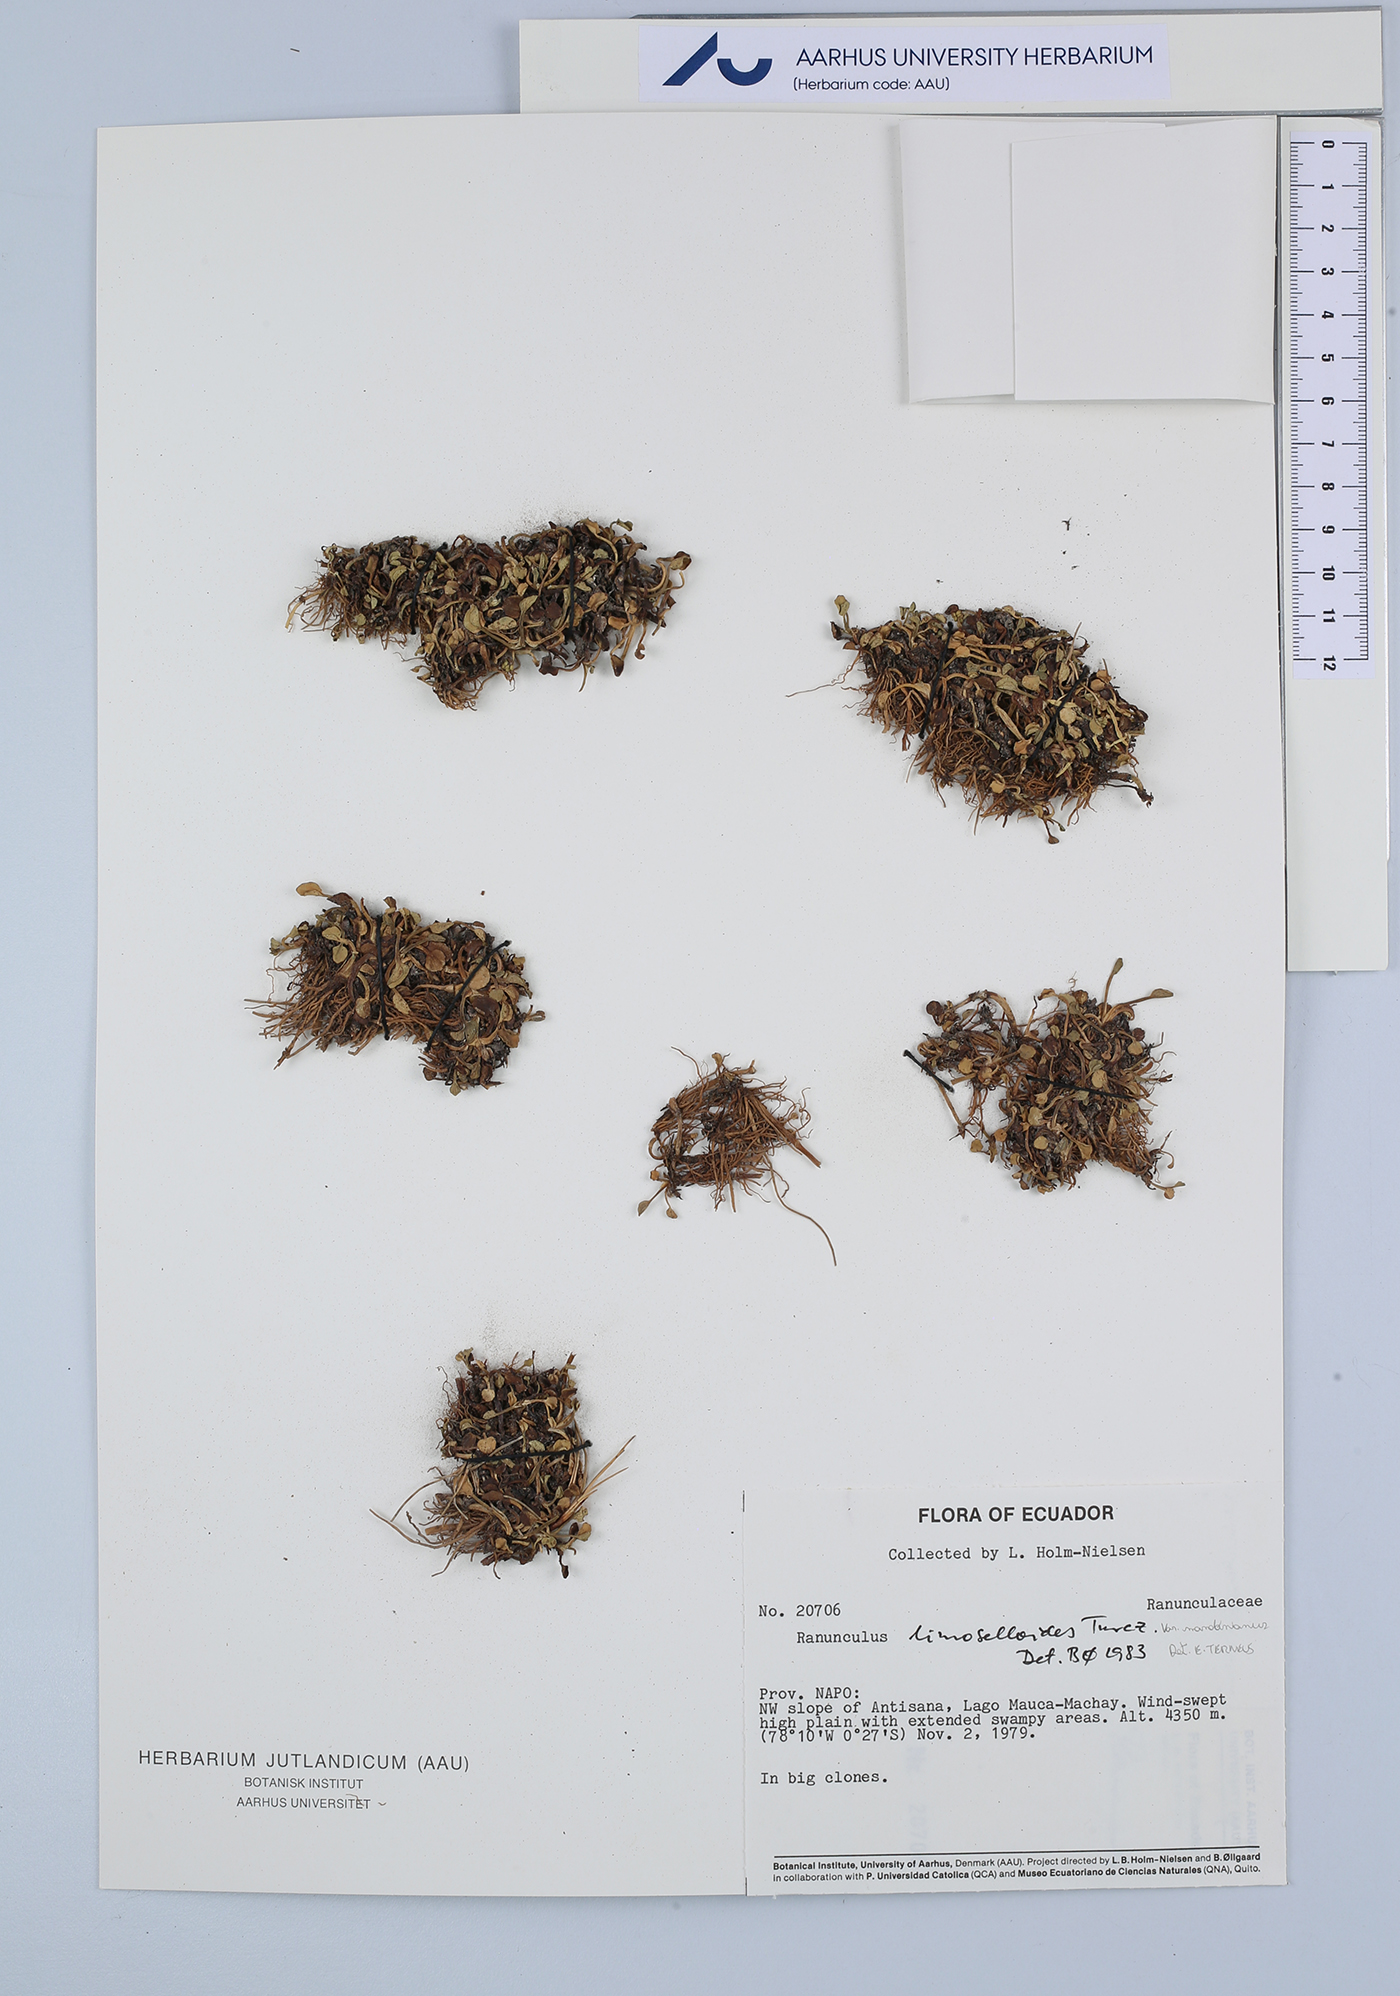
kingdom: Plantae
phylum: Tracheophyta
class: Magnoliopsida
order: Ranunculales
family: Ranunculaceae
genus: Ranunculus
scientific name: Ranunculus limoselloides
